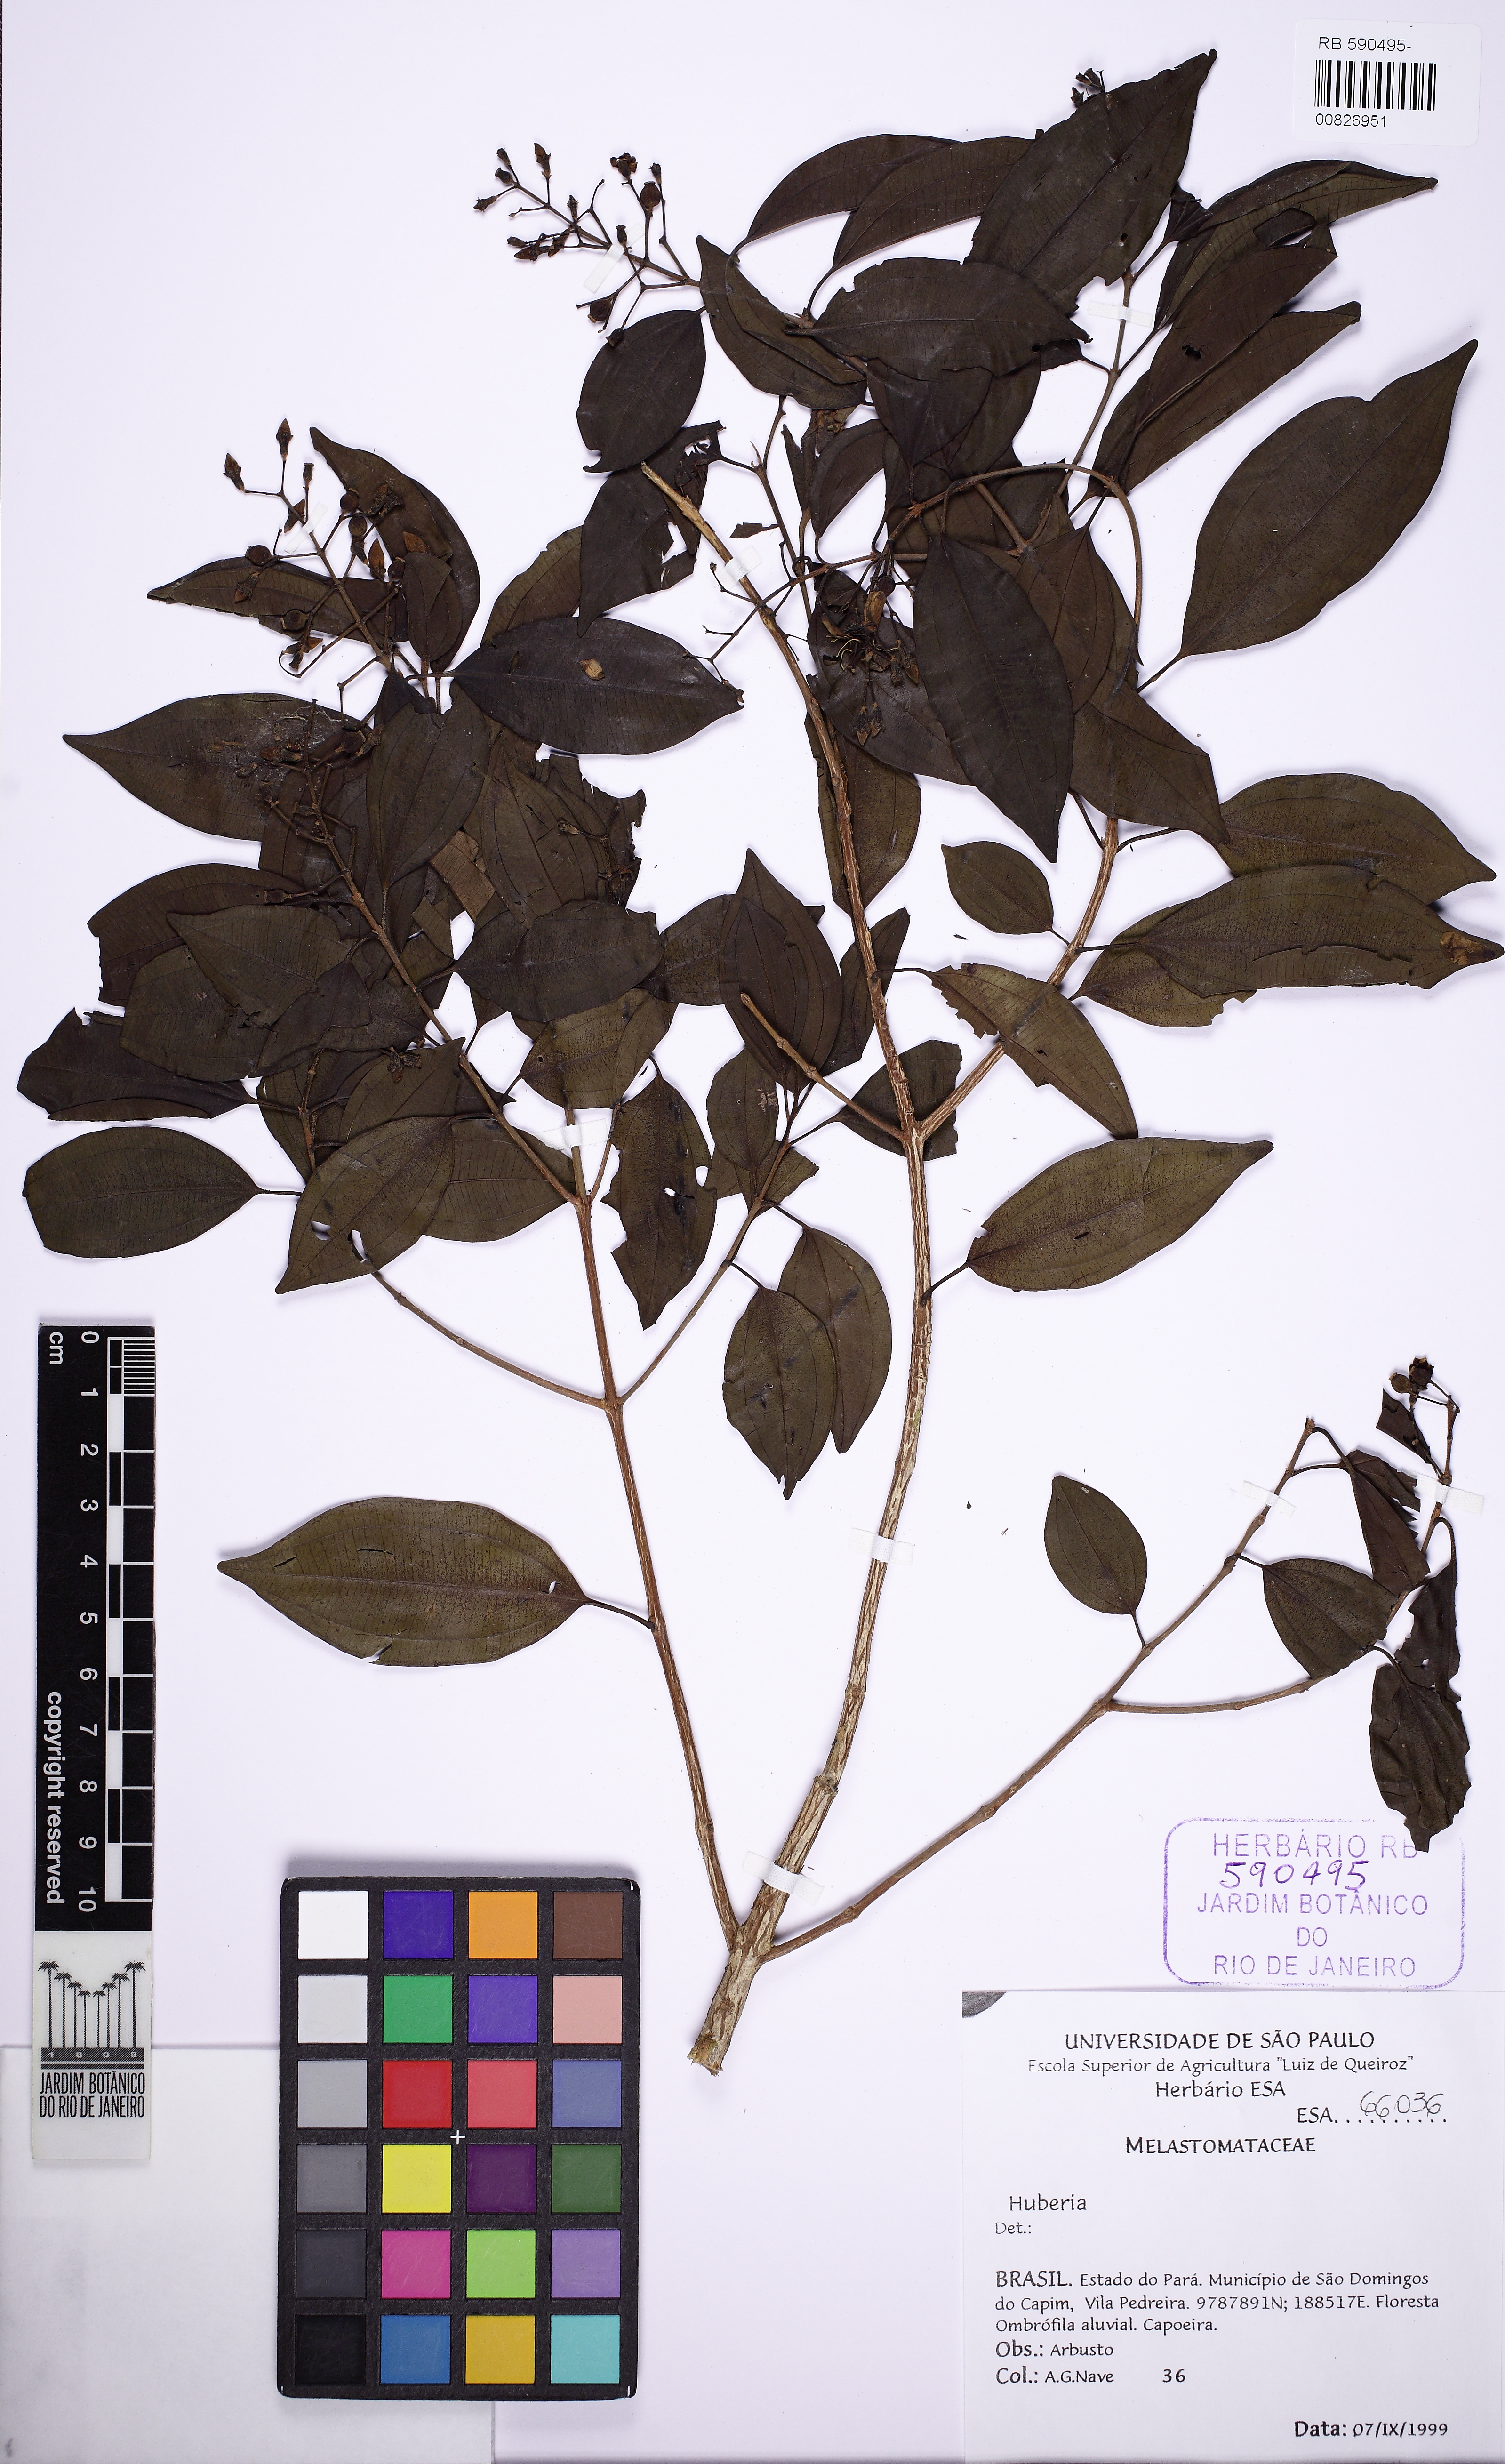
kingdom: Plantae
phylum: Tracheophyta
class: Magnoliopsida
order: Myrtales
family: Melastomataceae
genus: Huberia
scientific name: Huberia
